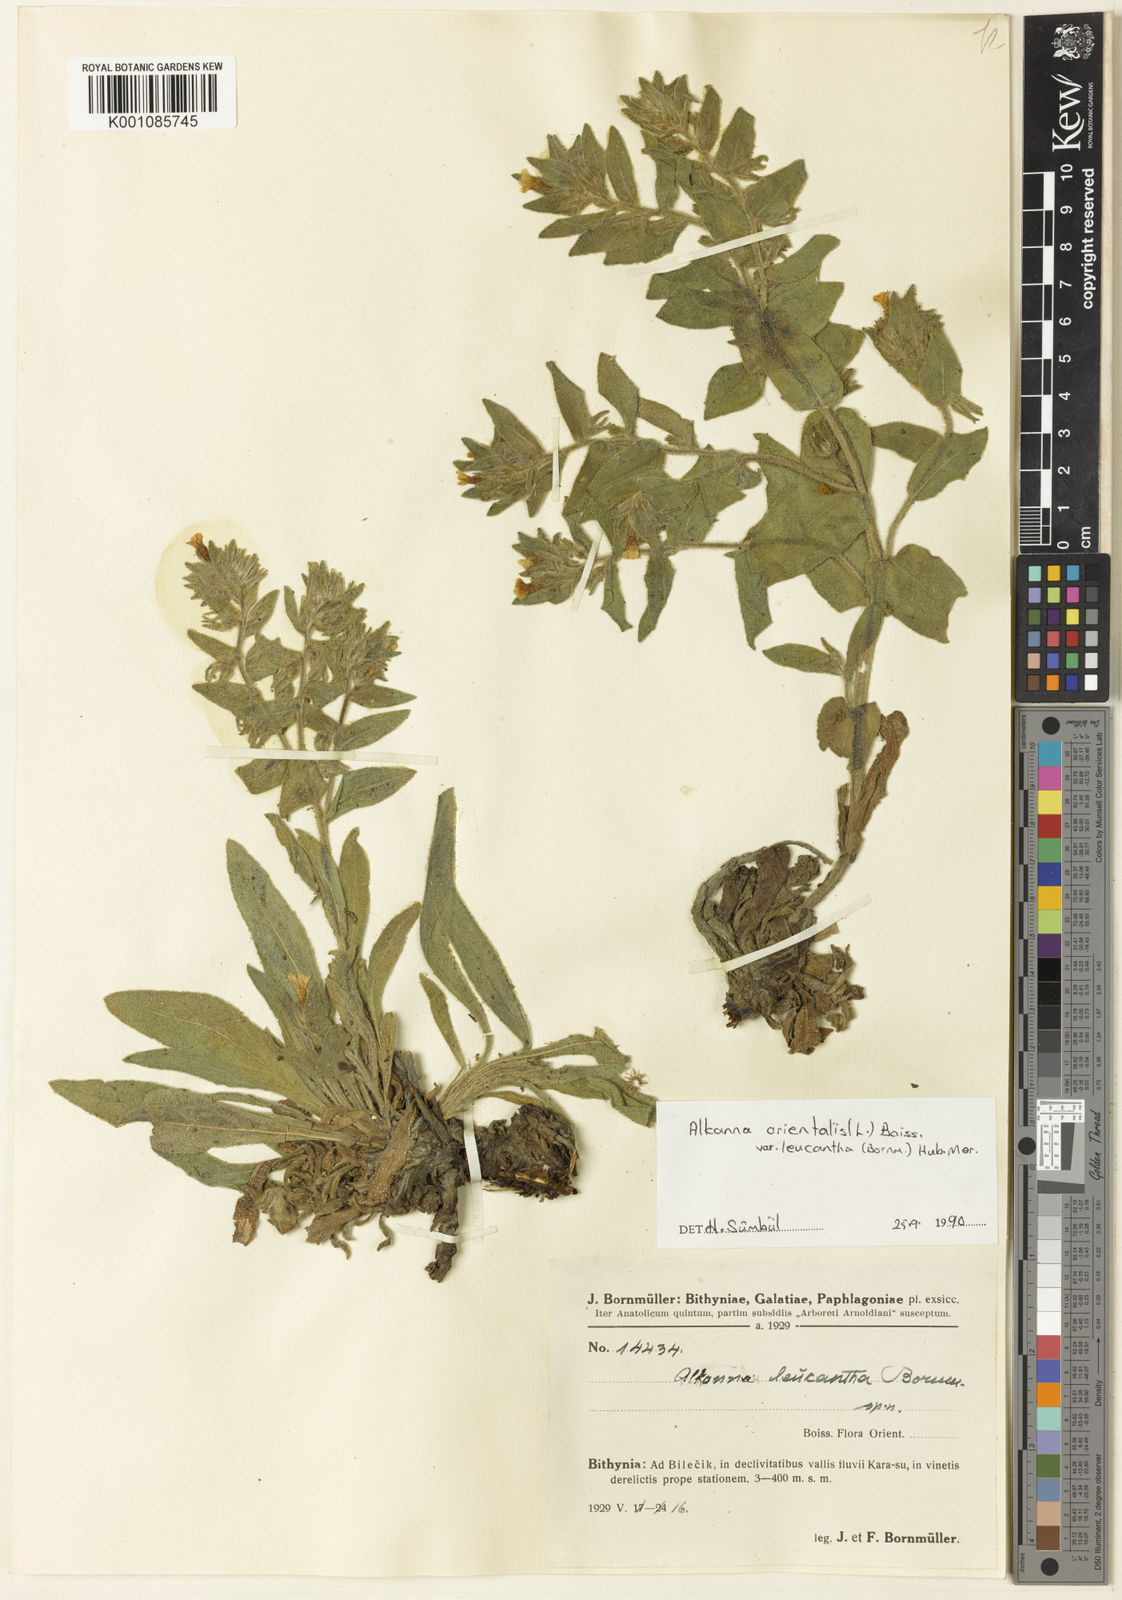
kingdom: Plantae
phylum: Tracheophyta
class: Magnoliopsida
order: Boraginales
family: Boraginaceae
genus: Alkanna
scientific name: Alkanna orientalis
